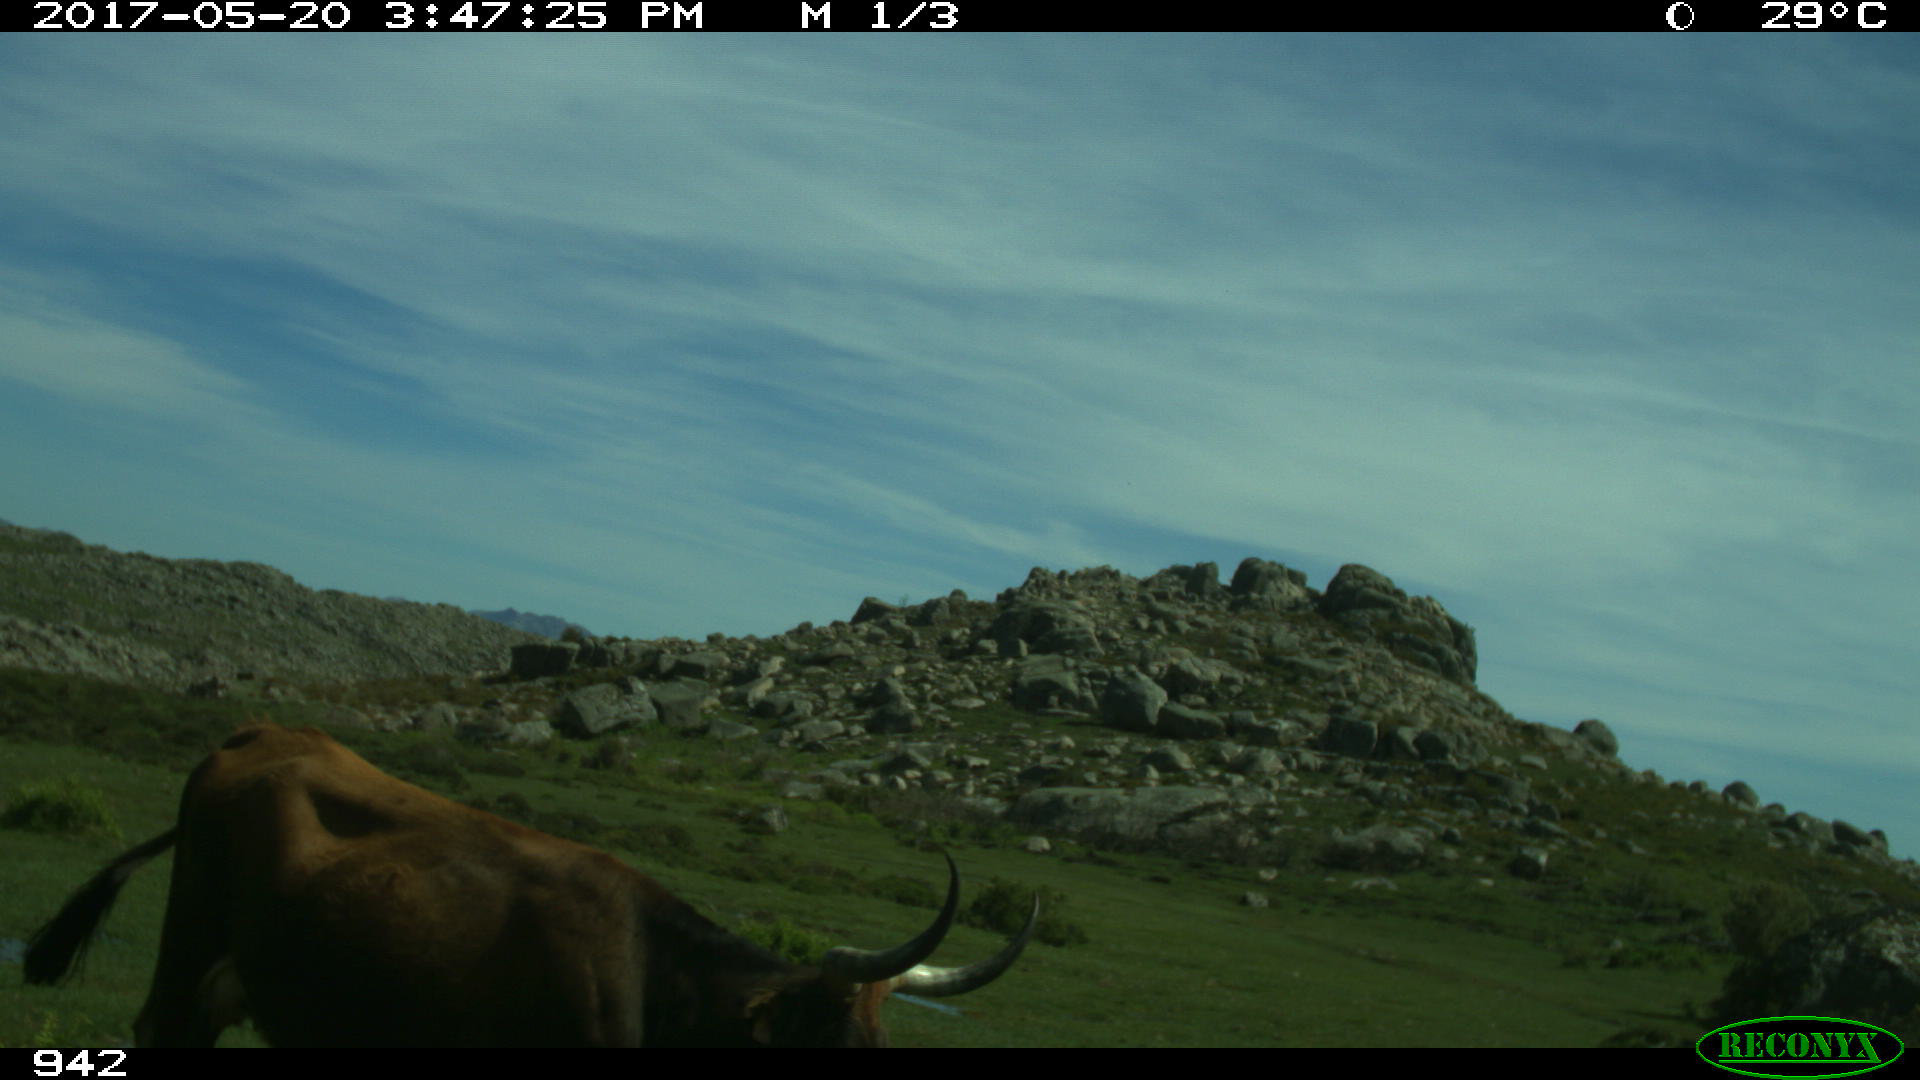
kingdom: Animalia
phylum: Chordata
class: Mammalia
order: Artiodactyla
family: Bovidae
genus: Bos
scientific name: Bos taurus
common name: Domesticated cattle
